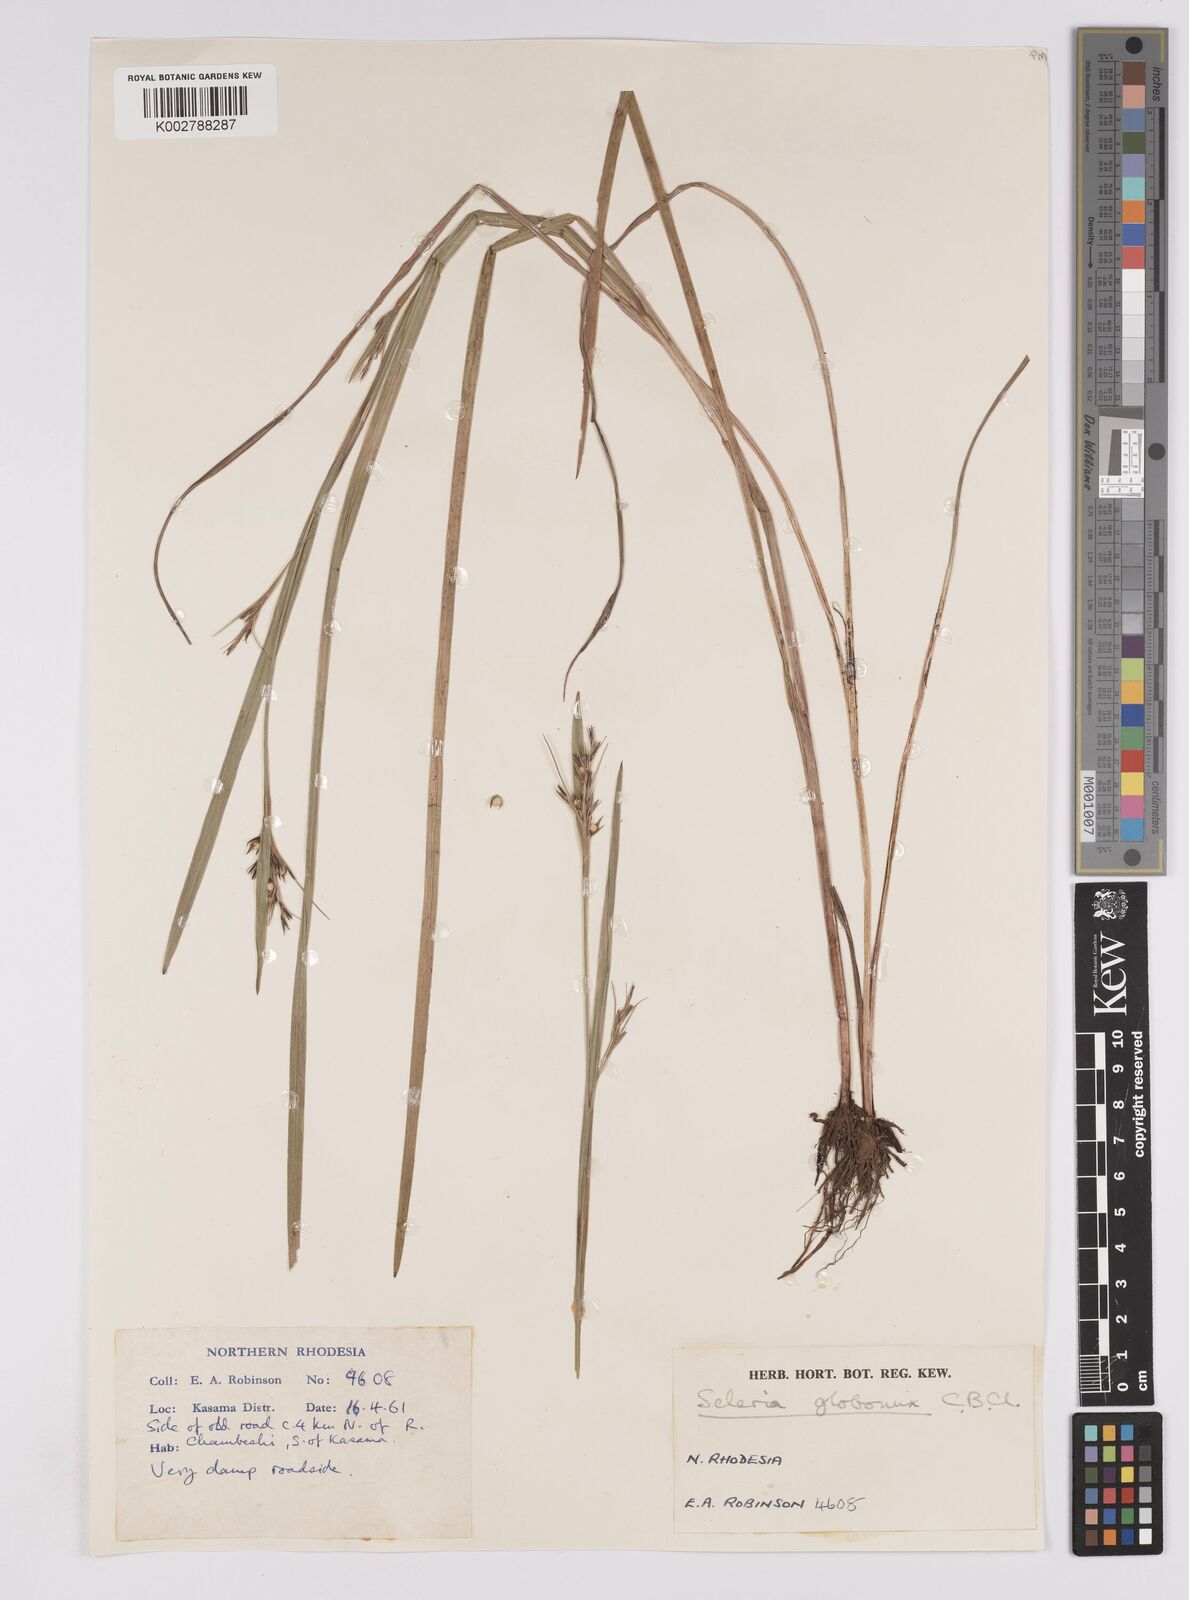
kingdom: Plantae
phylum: Tracheophyta
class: Liliopsida
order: Poales
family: Cyperaceae
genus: Scleria
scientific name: Scleria globonux
